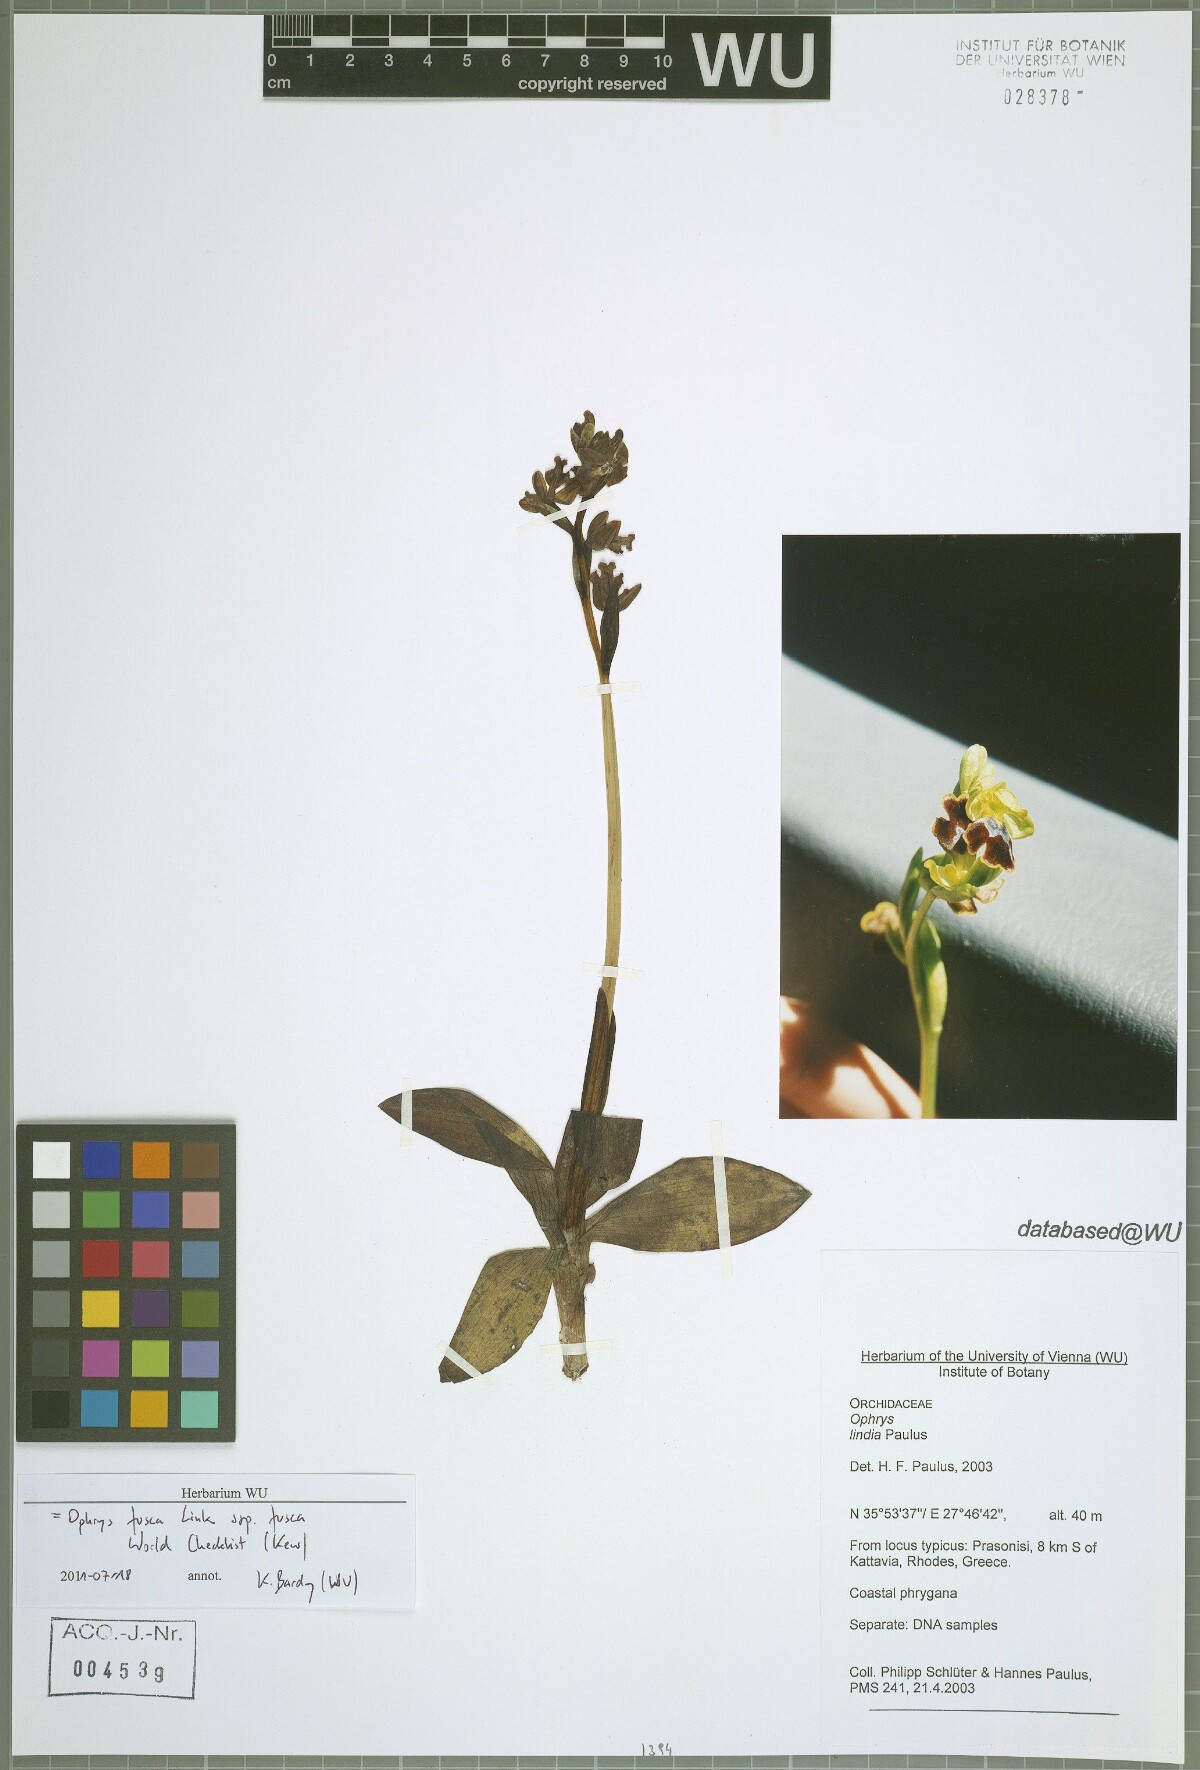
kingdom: Plantae
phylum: Tracheophyta
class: Liliopsida
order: Asparagales
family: Orchidaceae
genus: Ophrys
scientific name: Ophrys fusca
